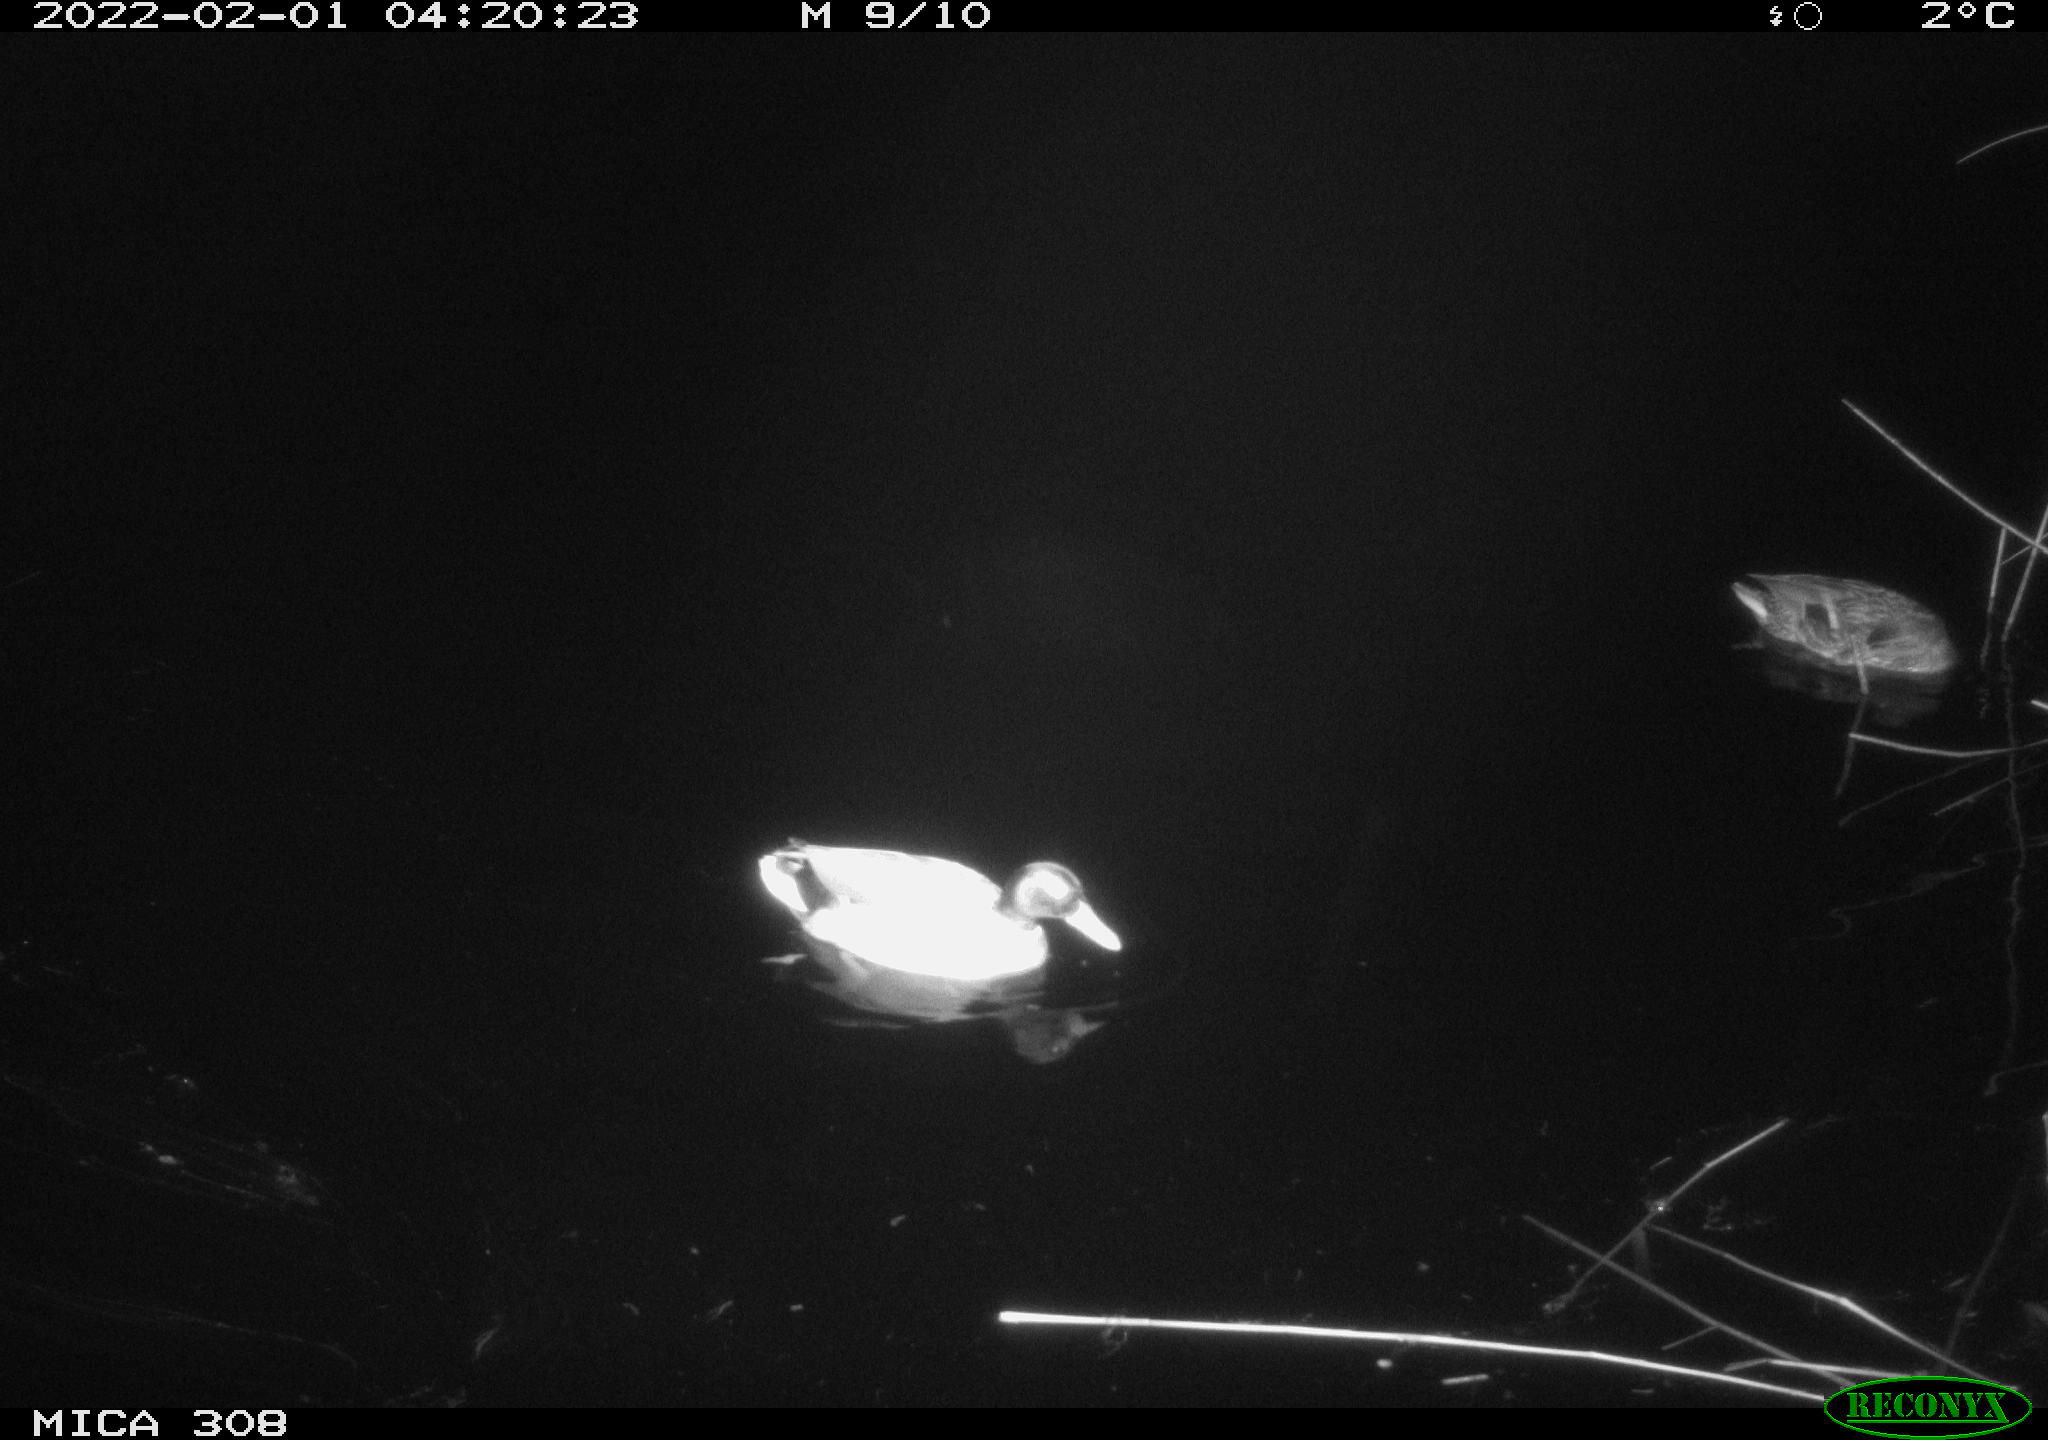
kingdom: Animalia
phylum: Chordata
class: Aves
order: Gruiformes
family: Rallidae
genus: Gallinula
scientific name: Gallinula chloropus
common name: Common moorhen
